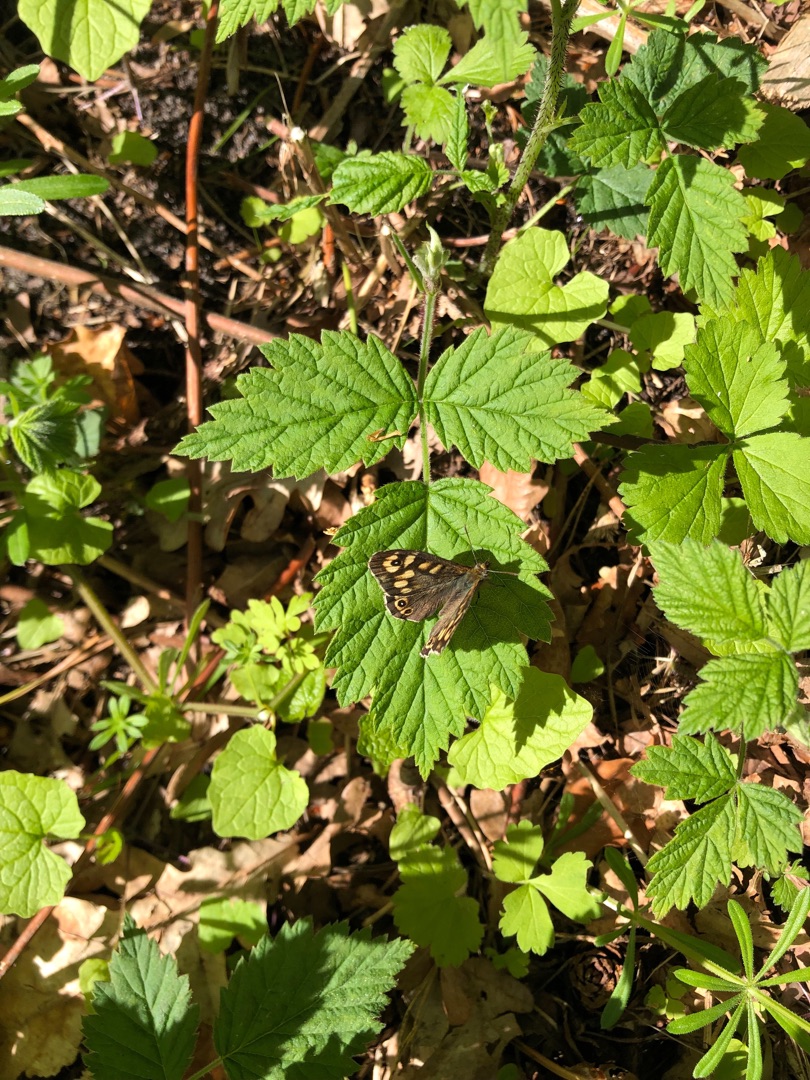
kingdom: Animalia
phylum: Arthropoda
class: Insecta
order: Lepidoptera
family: Nymphalidae
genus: Pararge
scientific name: Pararge aegeria
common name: Skovrandøje
